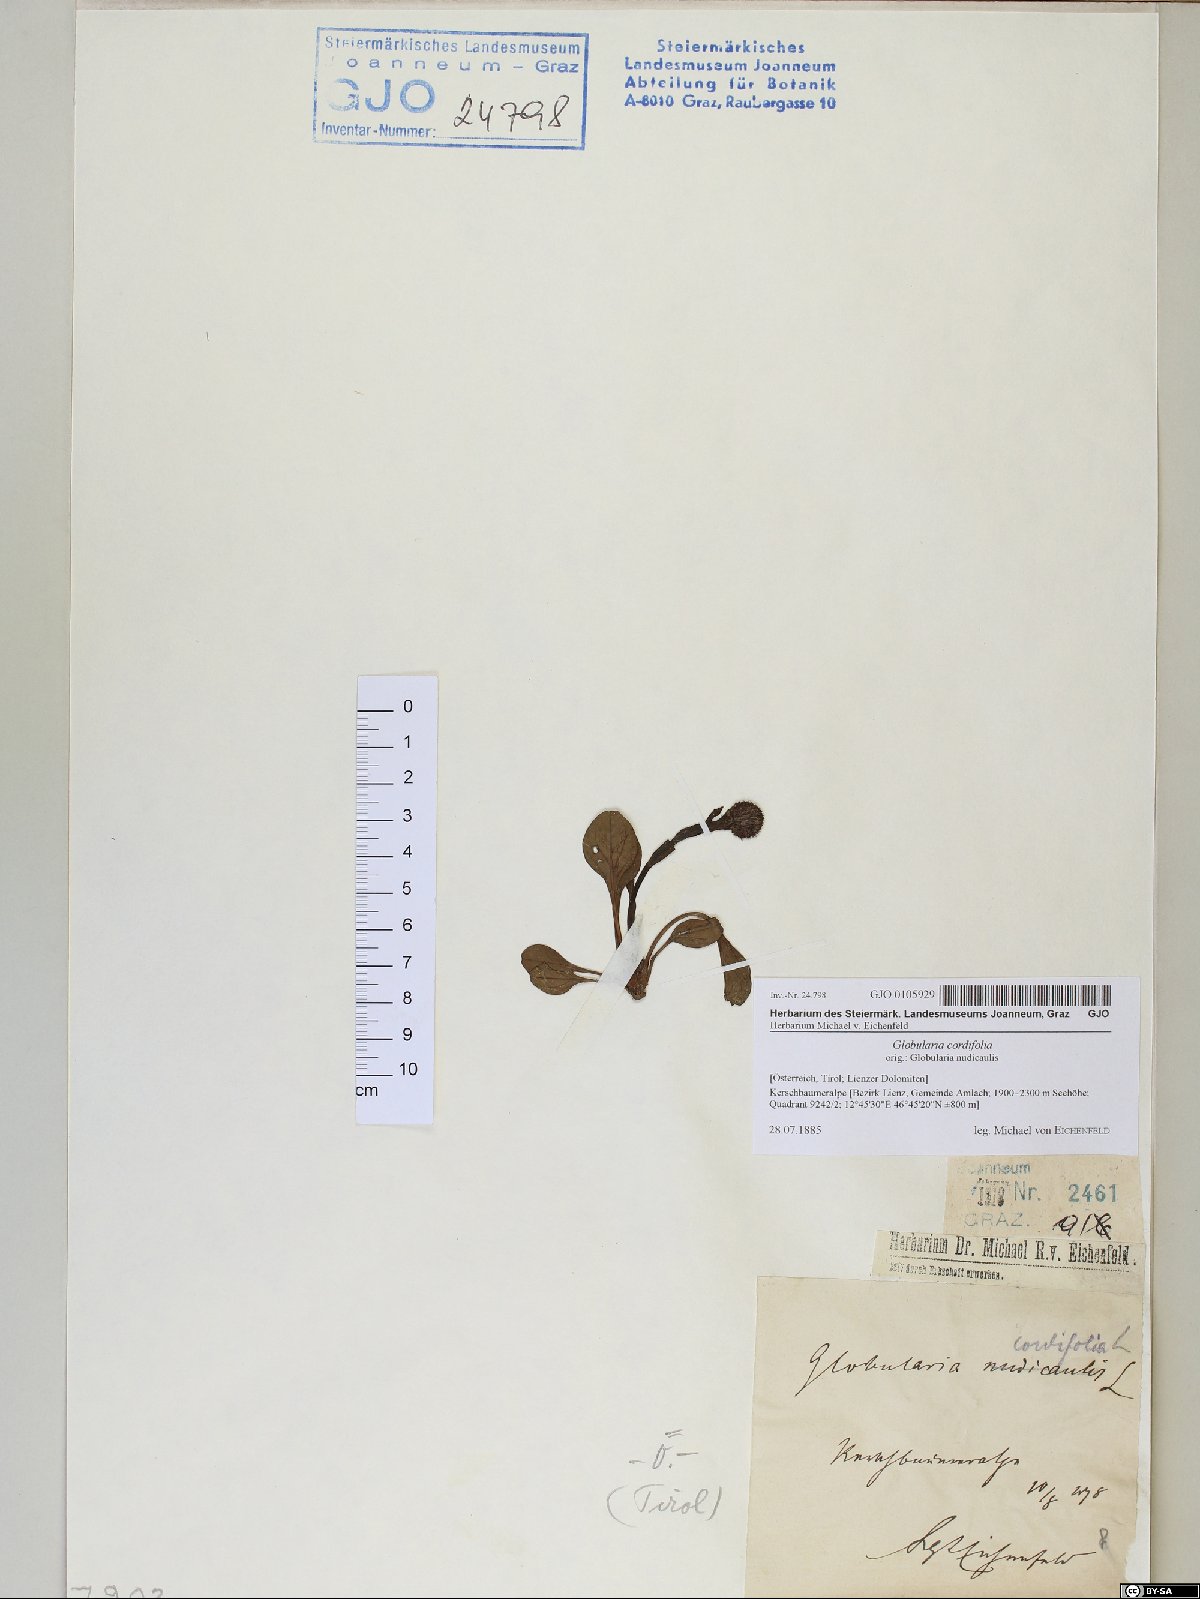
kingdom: Plantae
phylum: Tracheophyta
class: Magnoliopsida
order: Lamiales
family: Plantaginaceae
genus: Globularia
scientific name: Globularia cordifolia
